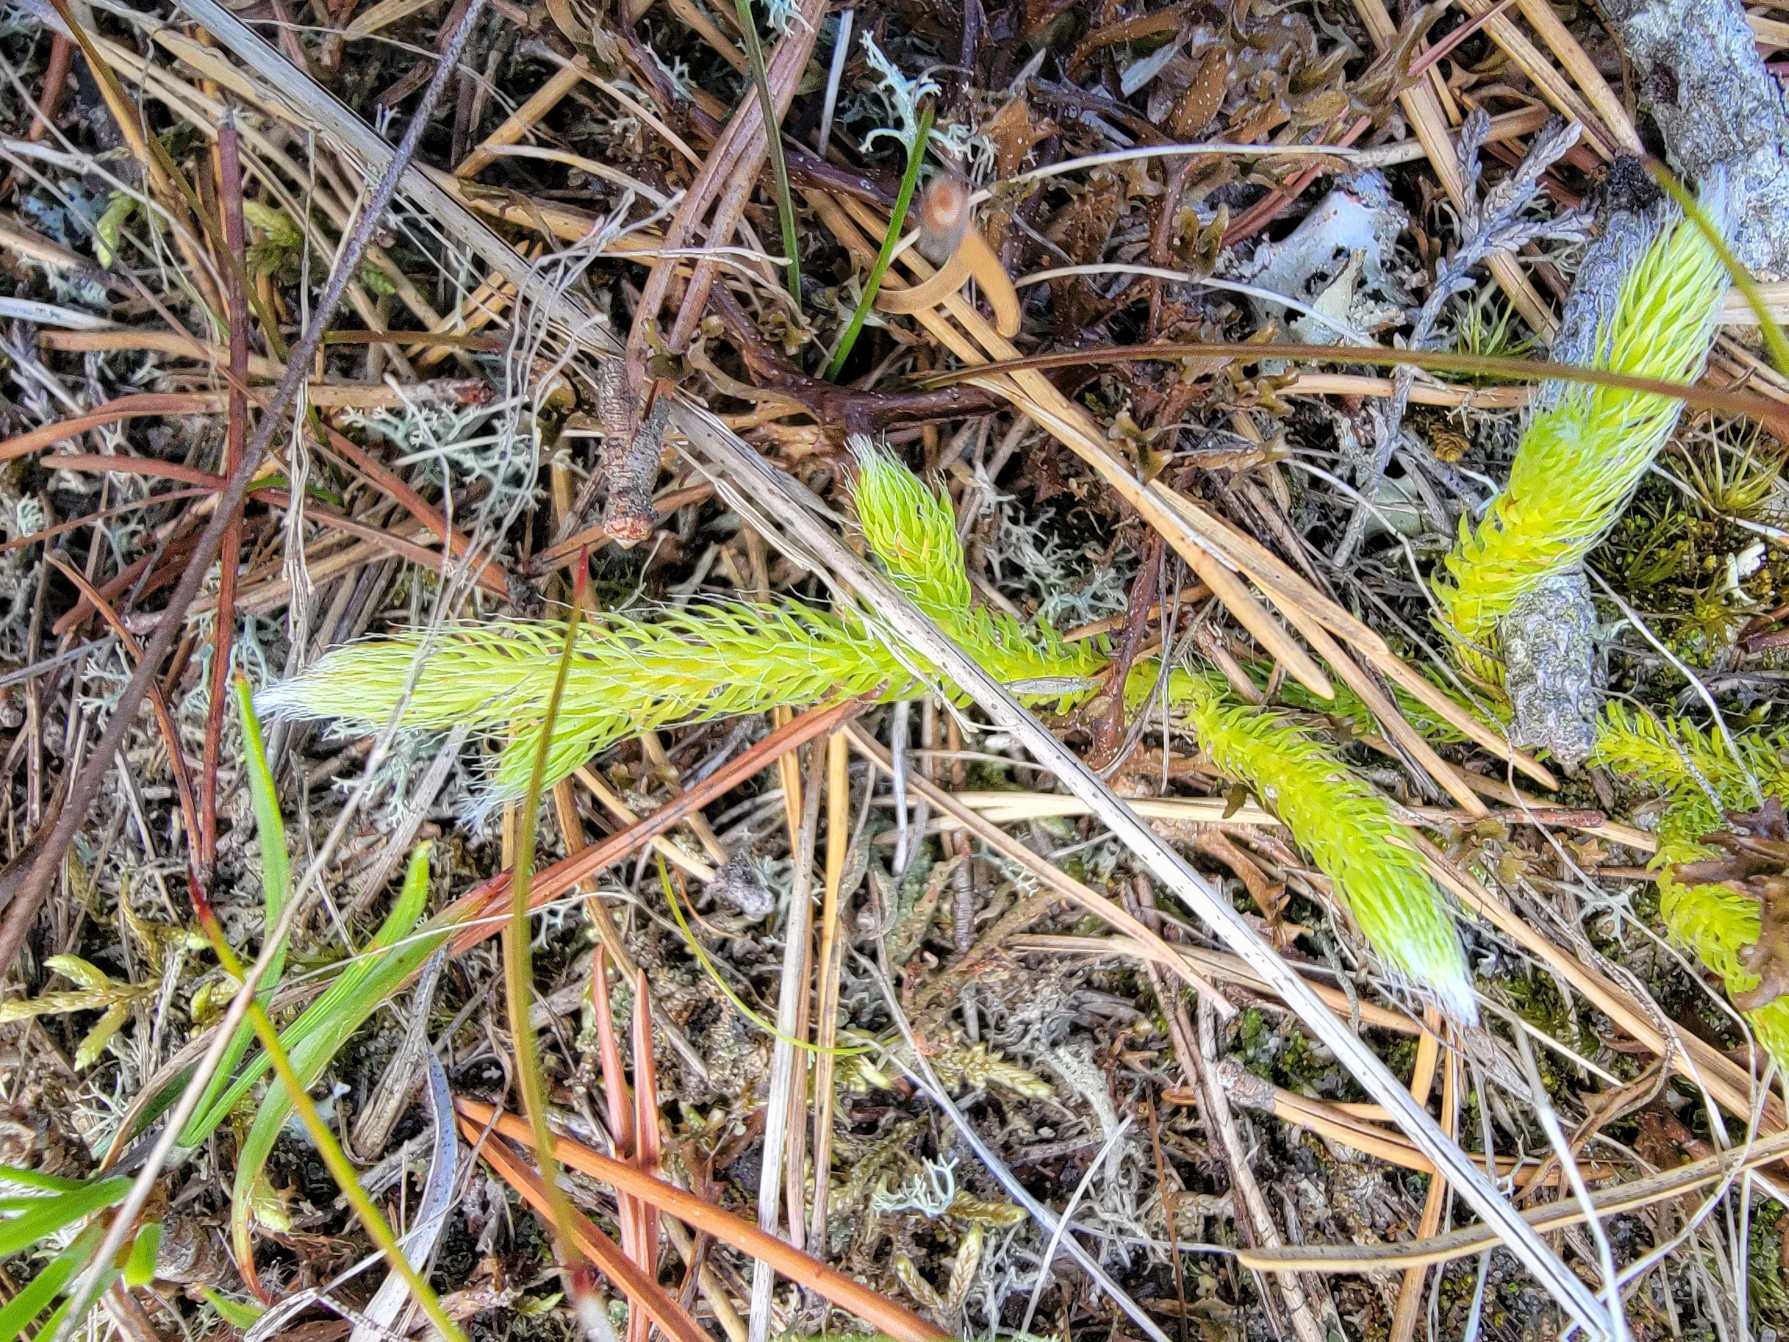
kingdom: Plantae
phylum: Tracheophyta
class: Lycopodiopsida
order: Lycopodiales
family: Lycopodiaceae
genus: Lycopodium
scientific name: Lycopodium clavatum
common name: Almindelig ulvefod
